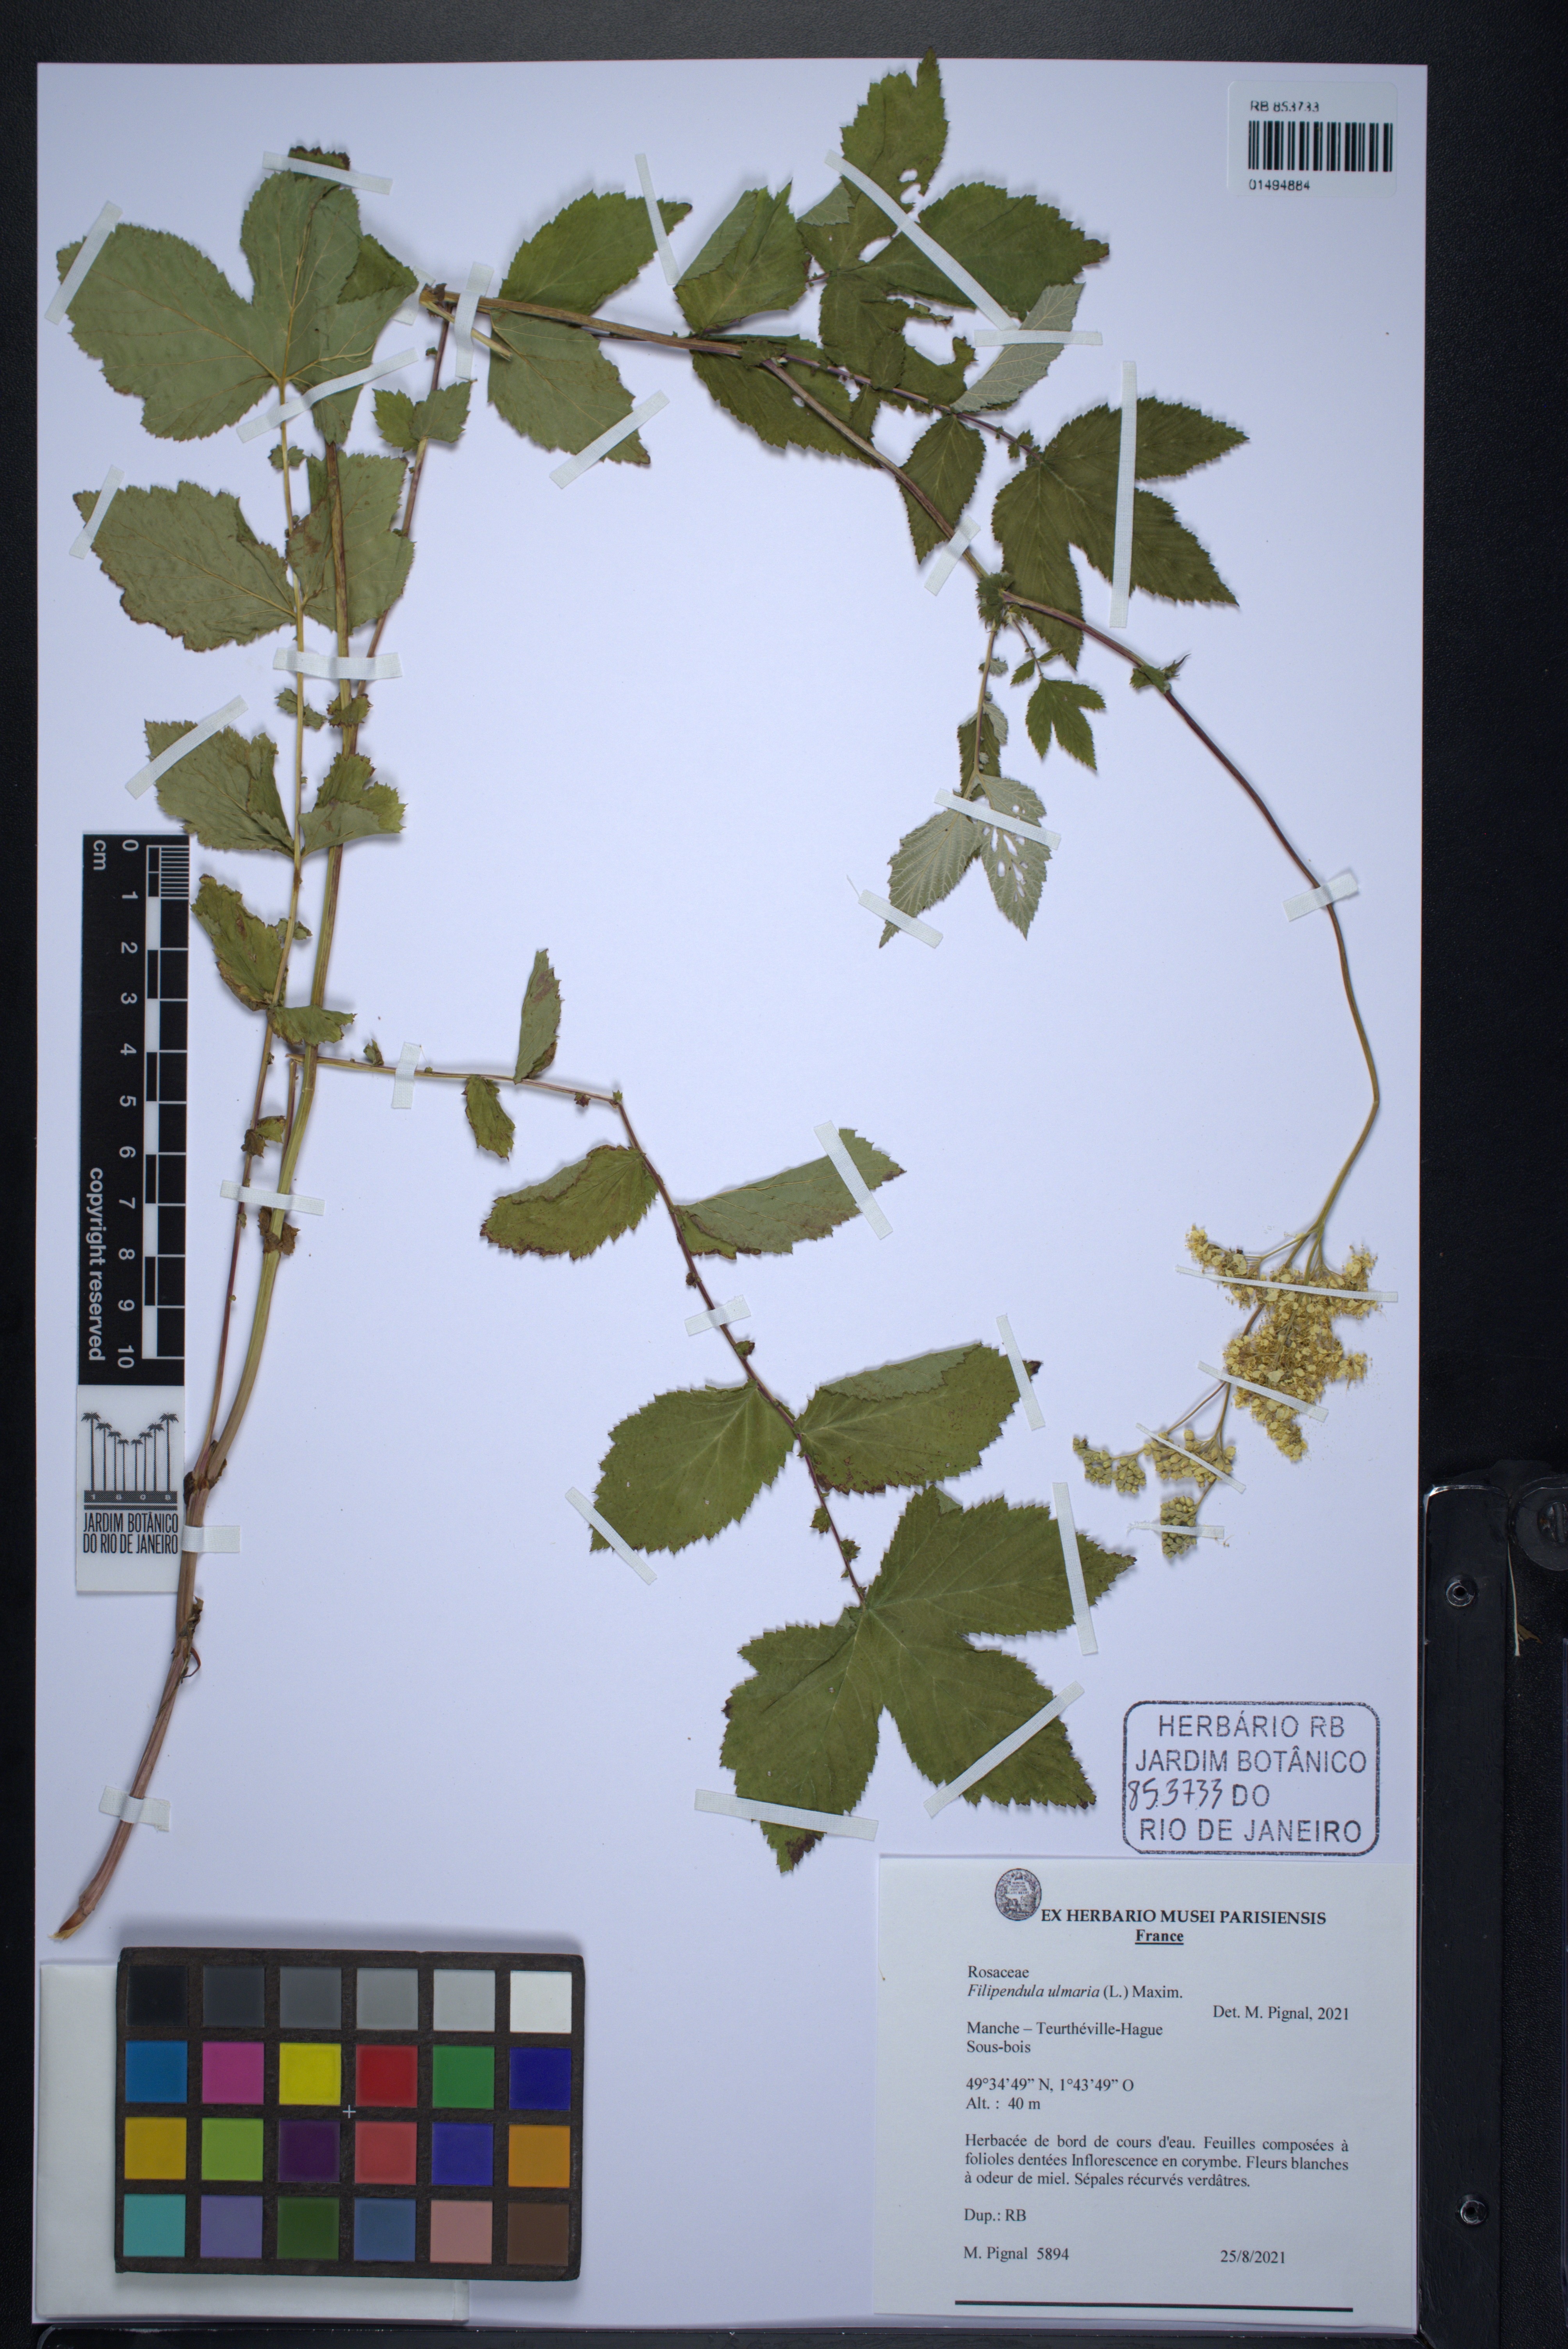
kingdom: Plantae
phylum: Tracheophyta
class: Magnoliopsida
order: Rosales
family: Rosaceae
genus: Filipendula
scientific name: Filipendula ulmaria
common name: Meadowsweet
